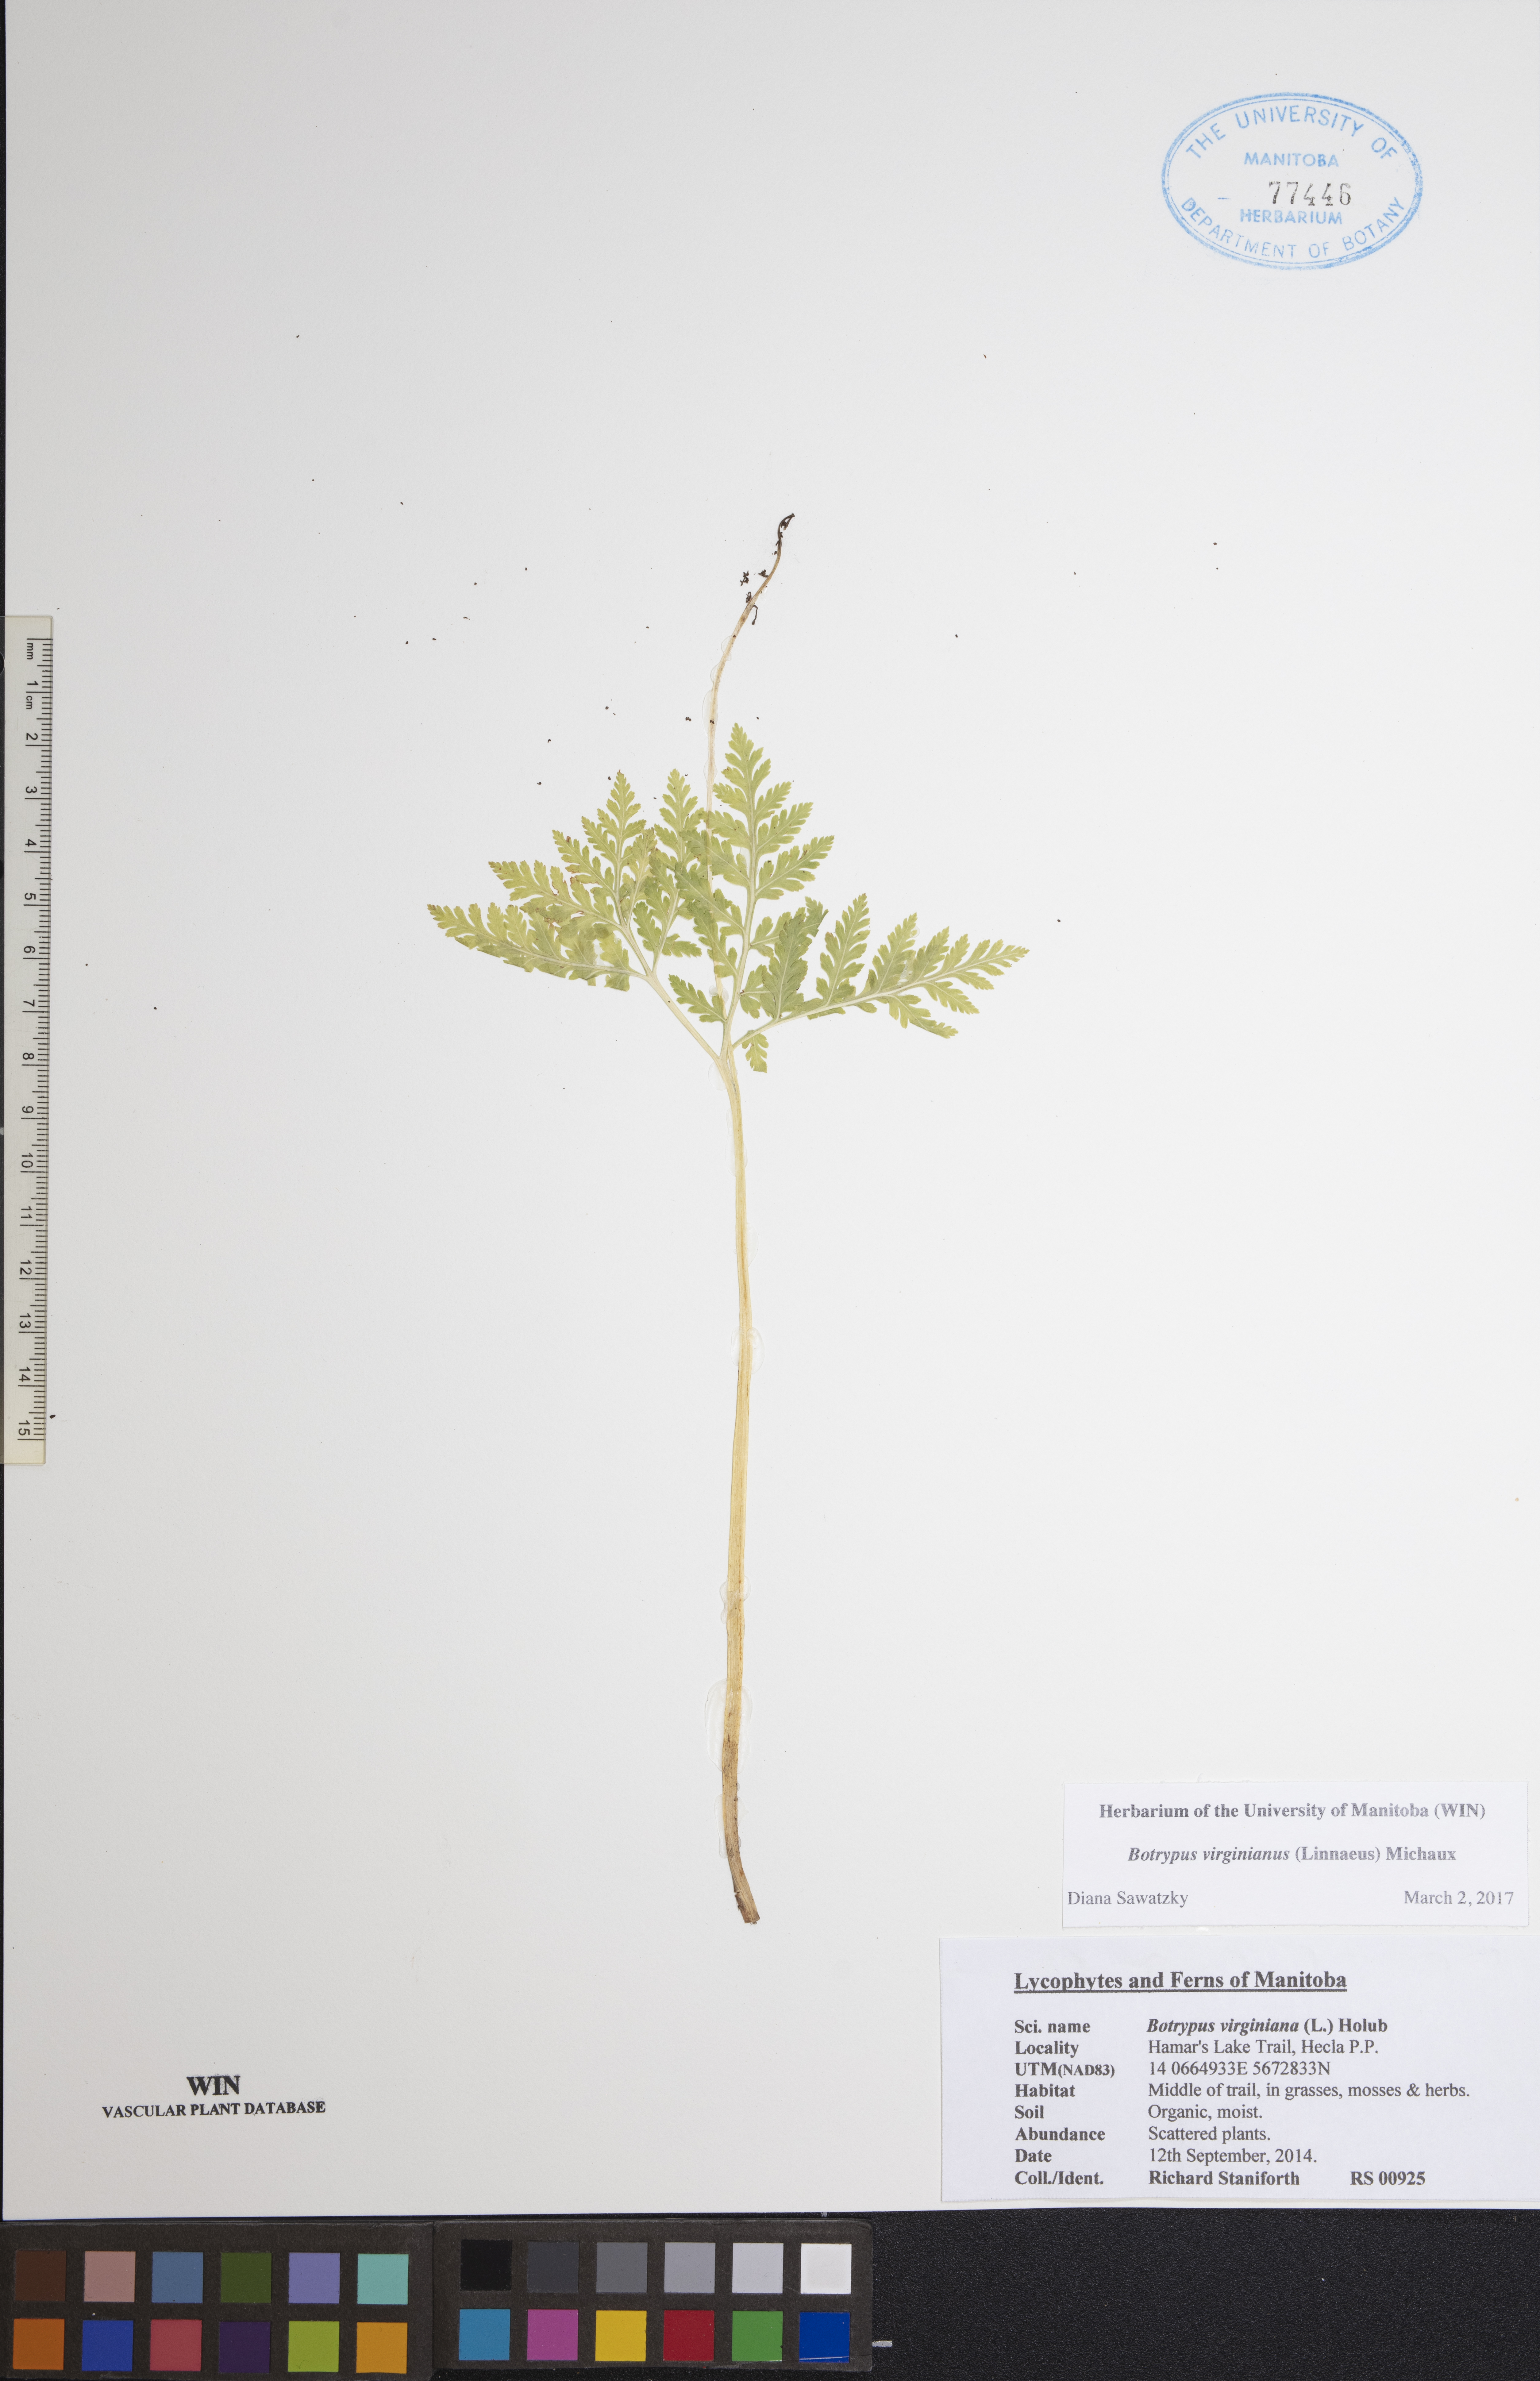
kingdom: Plantae
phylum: Tracheophyta
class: Polypodiopsida
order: Ophioglossales
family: Ophioglossaceae
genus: Botrypus
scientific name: Botrypus virginianus
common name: Common grapefern
